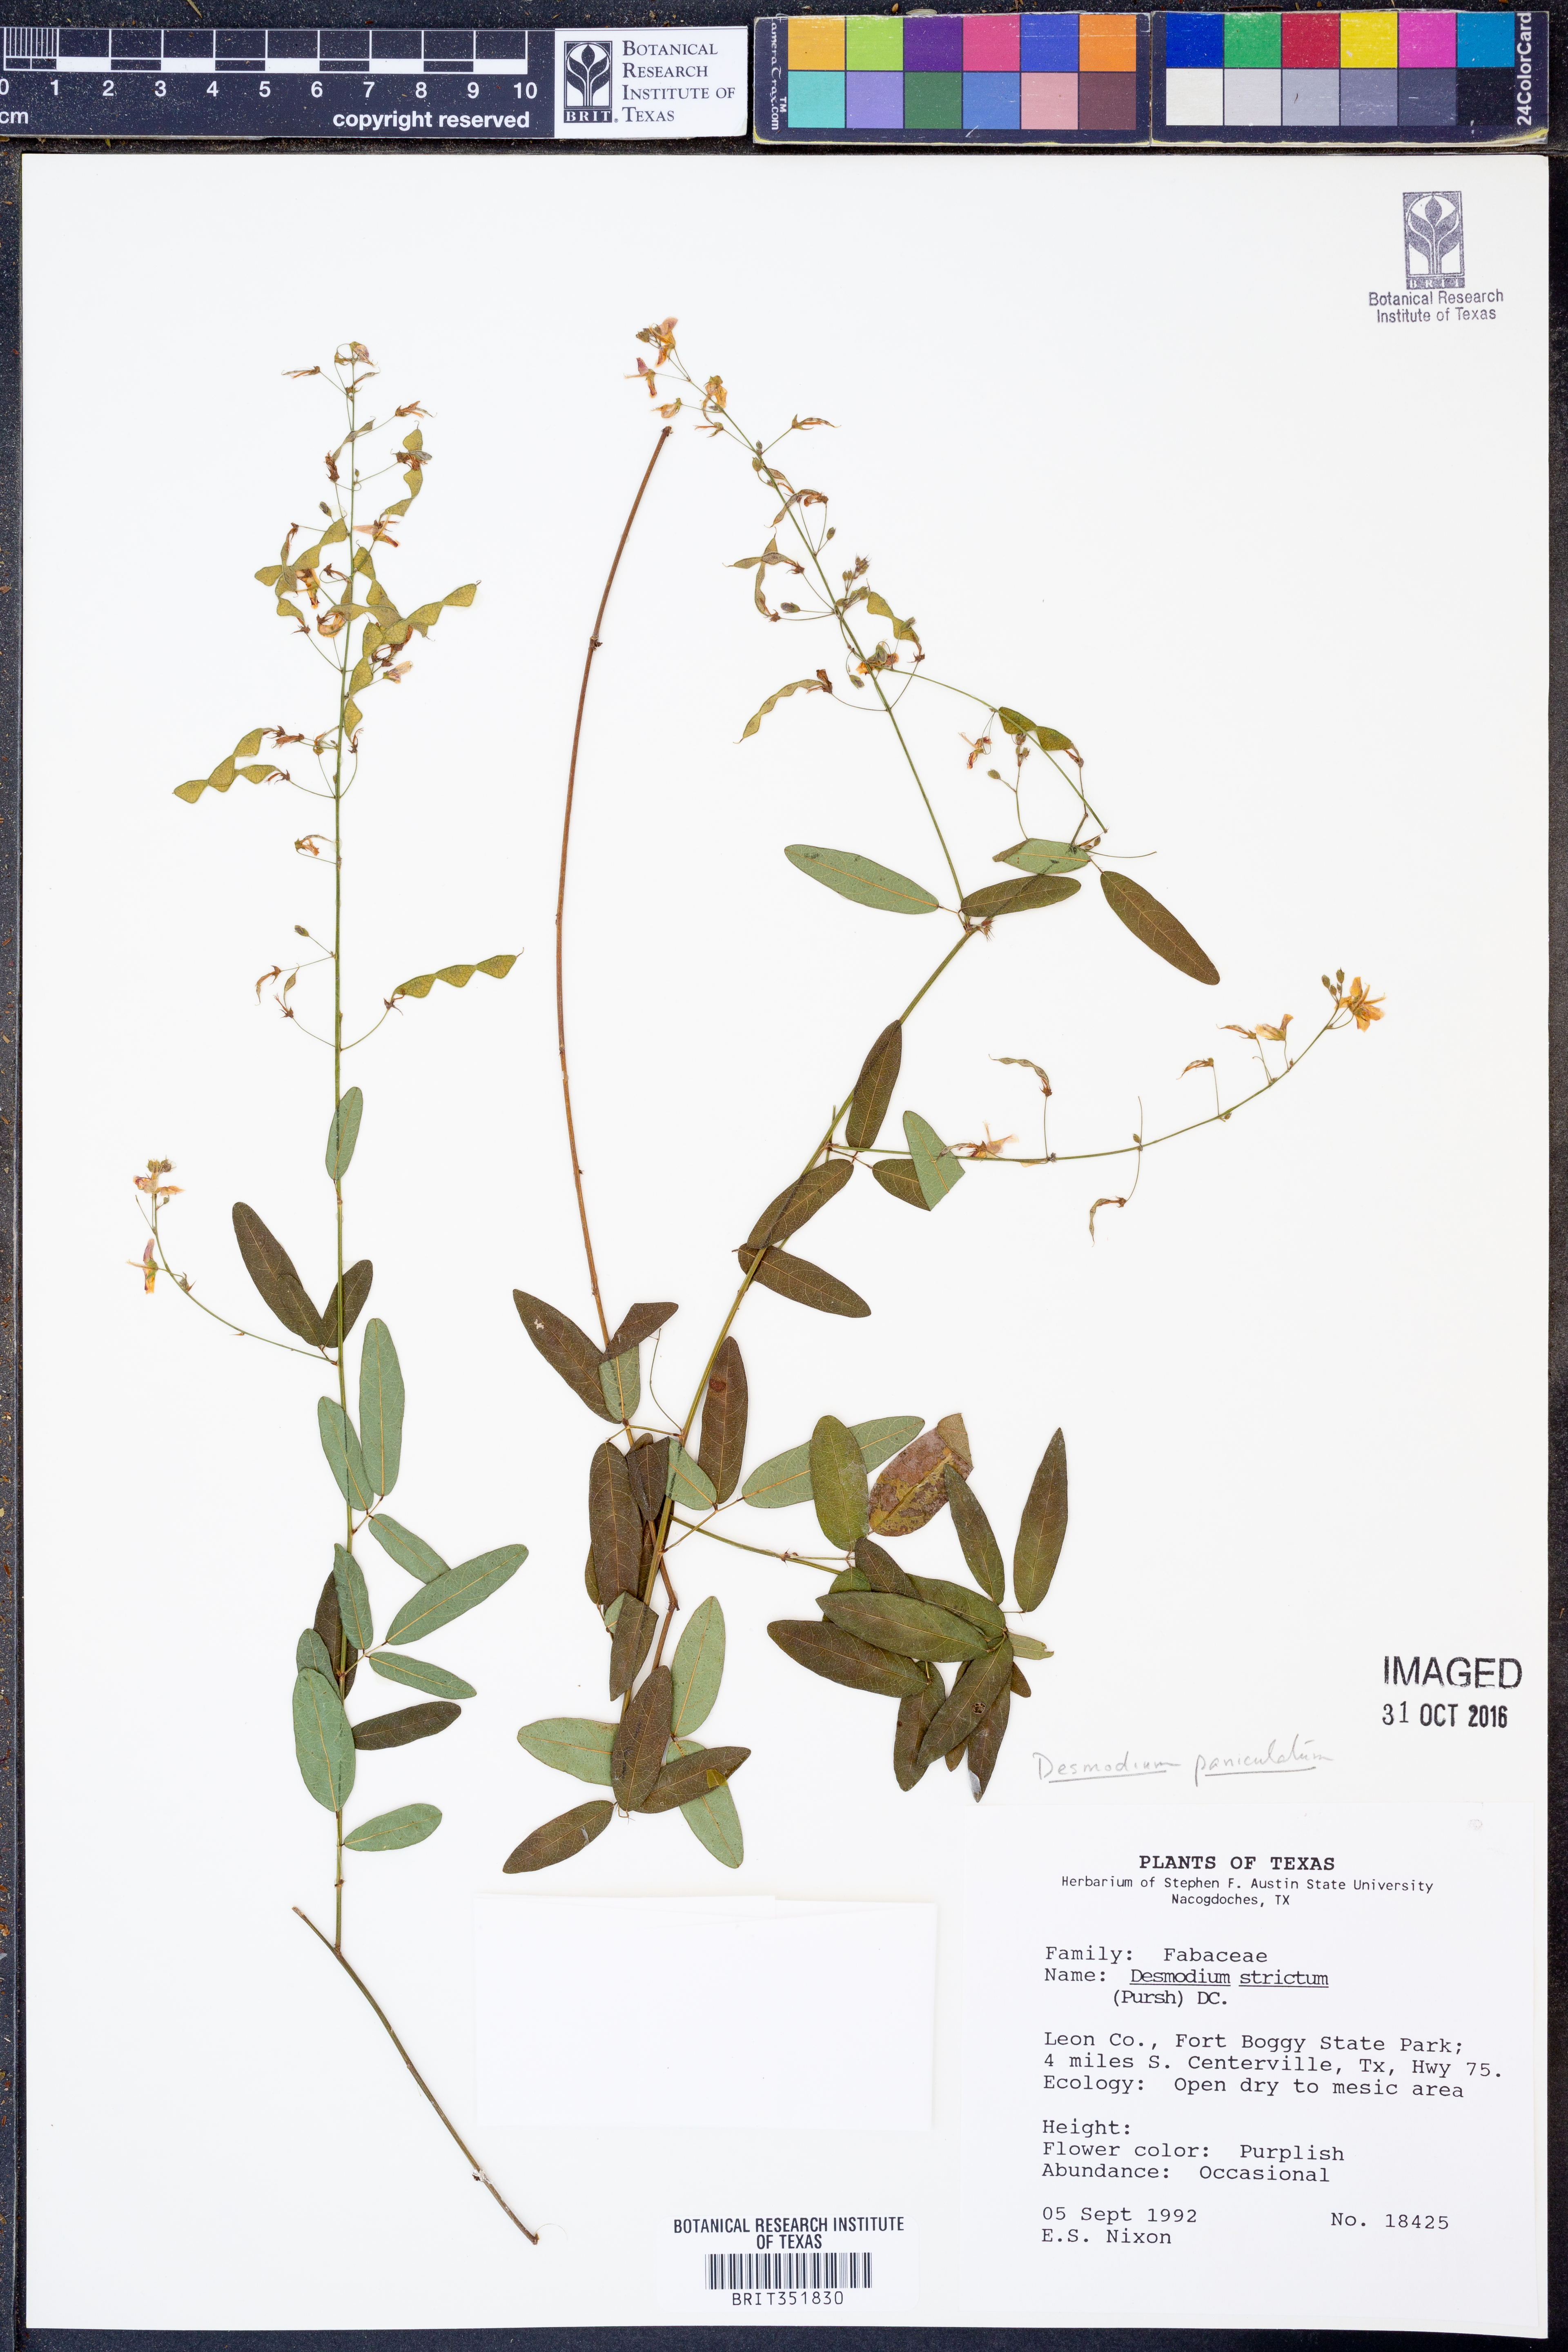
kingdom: Plantae
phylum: Tracheophyta
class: Magnoliopsida
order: Fabales
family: Fabaceae
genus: Desmodium
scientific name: Desmodium paniculatum
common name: Panicled tick-clover
